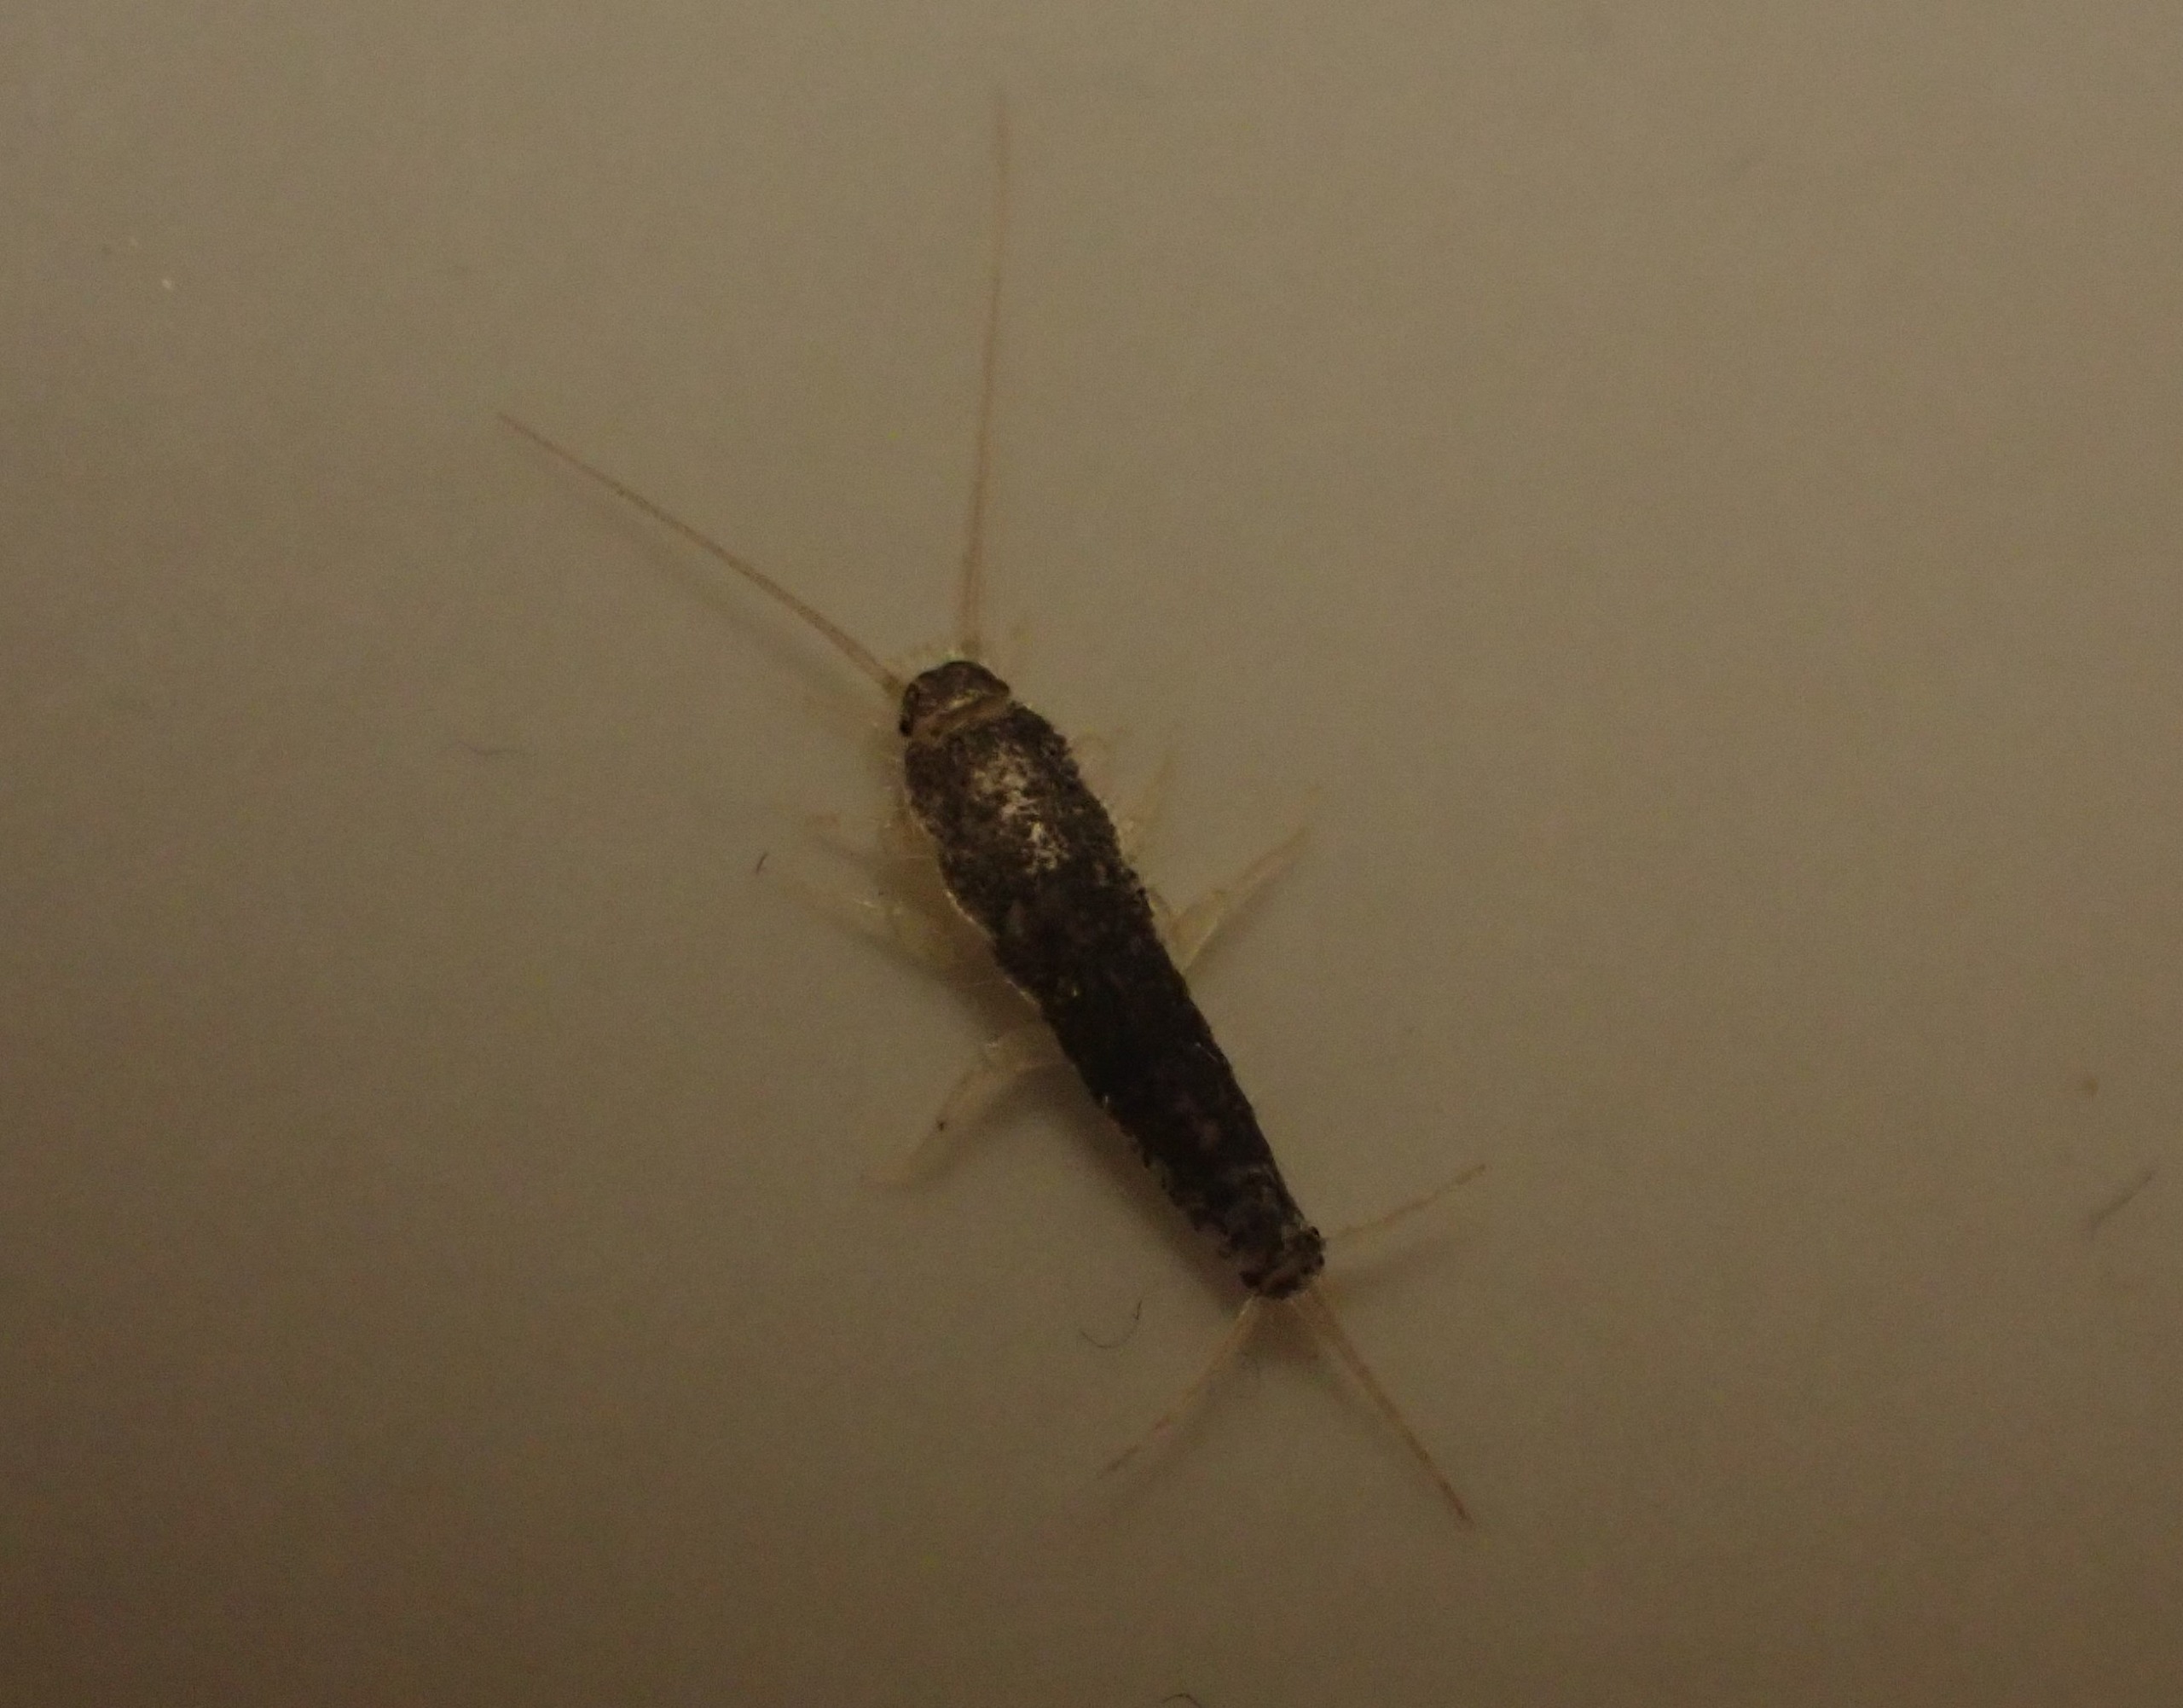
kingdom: Animalia
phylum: Arthropoda
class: Insecta
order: Zygentoma
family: Lepismatidae
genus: Ctenolepisma
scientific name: Ctenolepisma longicaudatum
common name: Skægget sølvkræ
